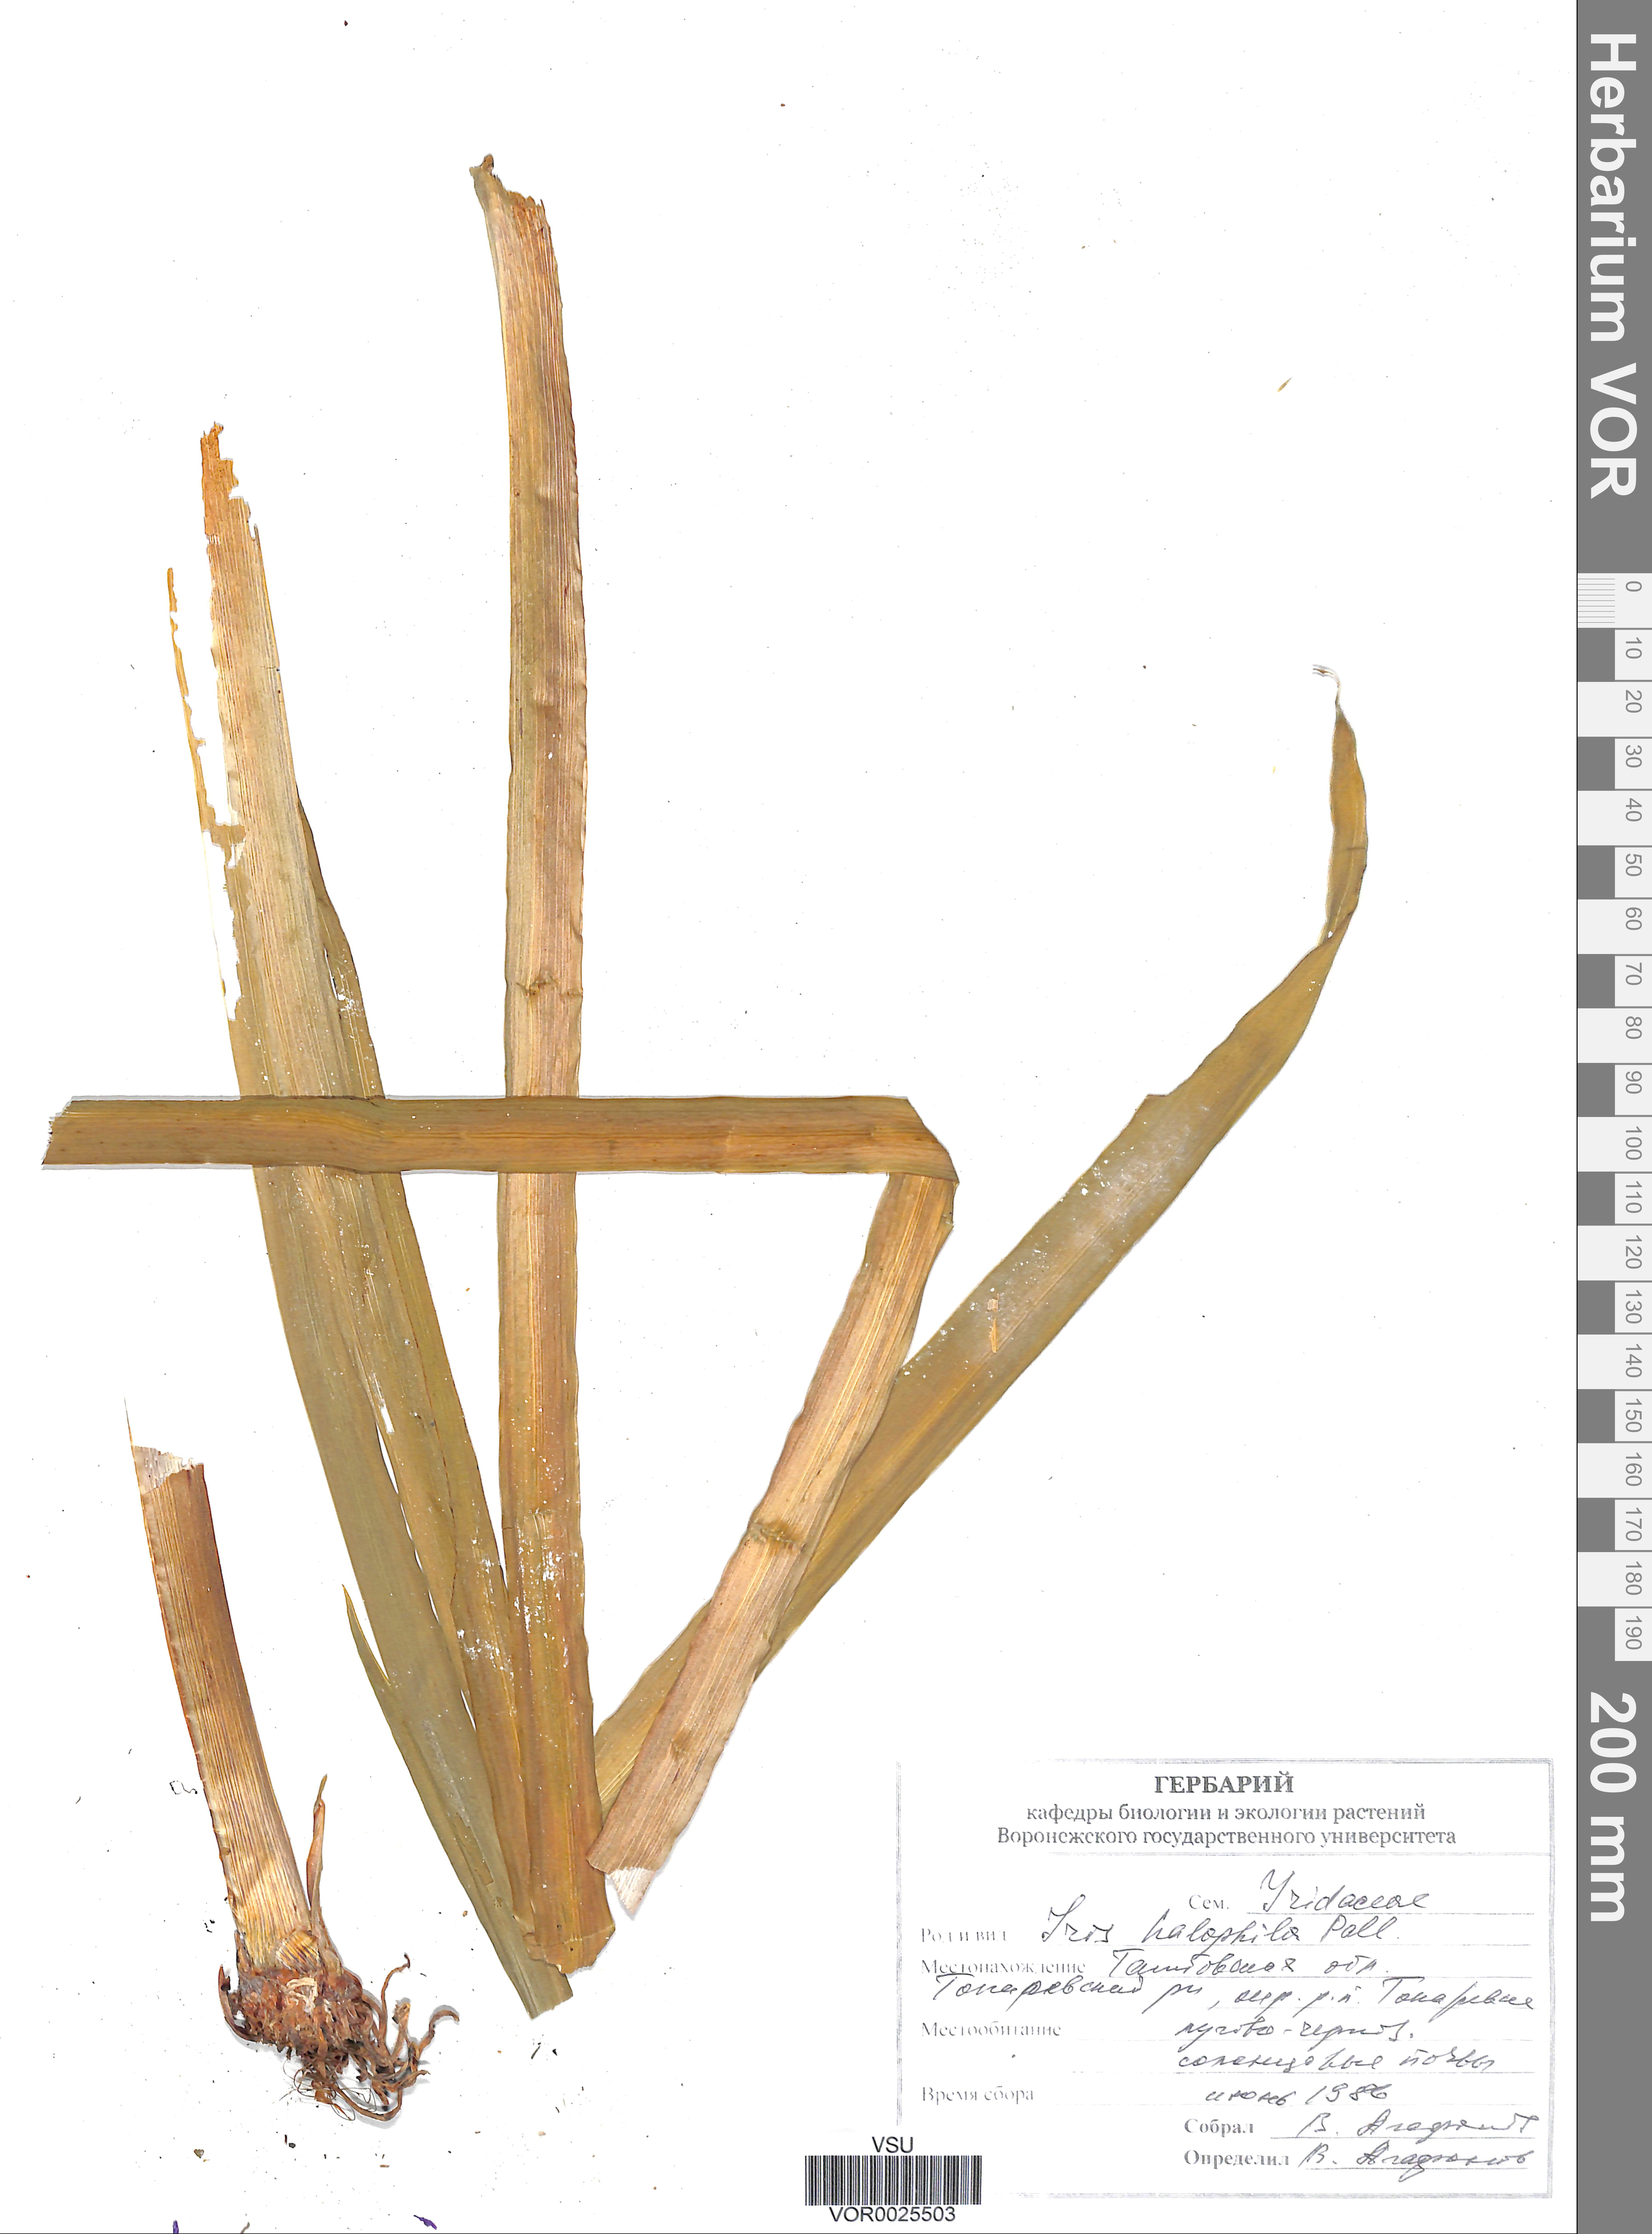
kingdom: Plantae
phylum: Tracheophyta
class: Liliopsida
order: Asparagales
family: Iridaceae
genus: Iris
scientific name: Iris halophila
